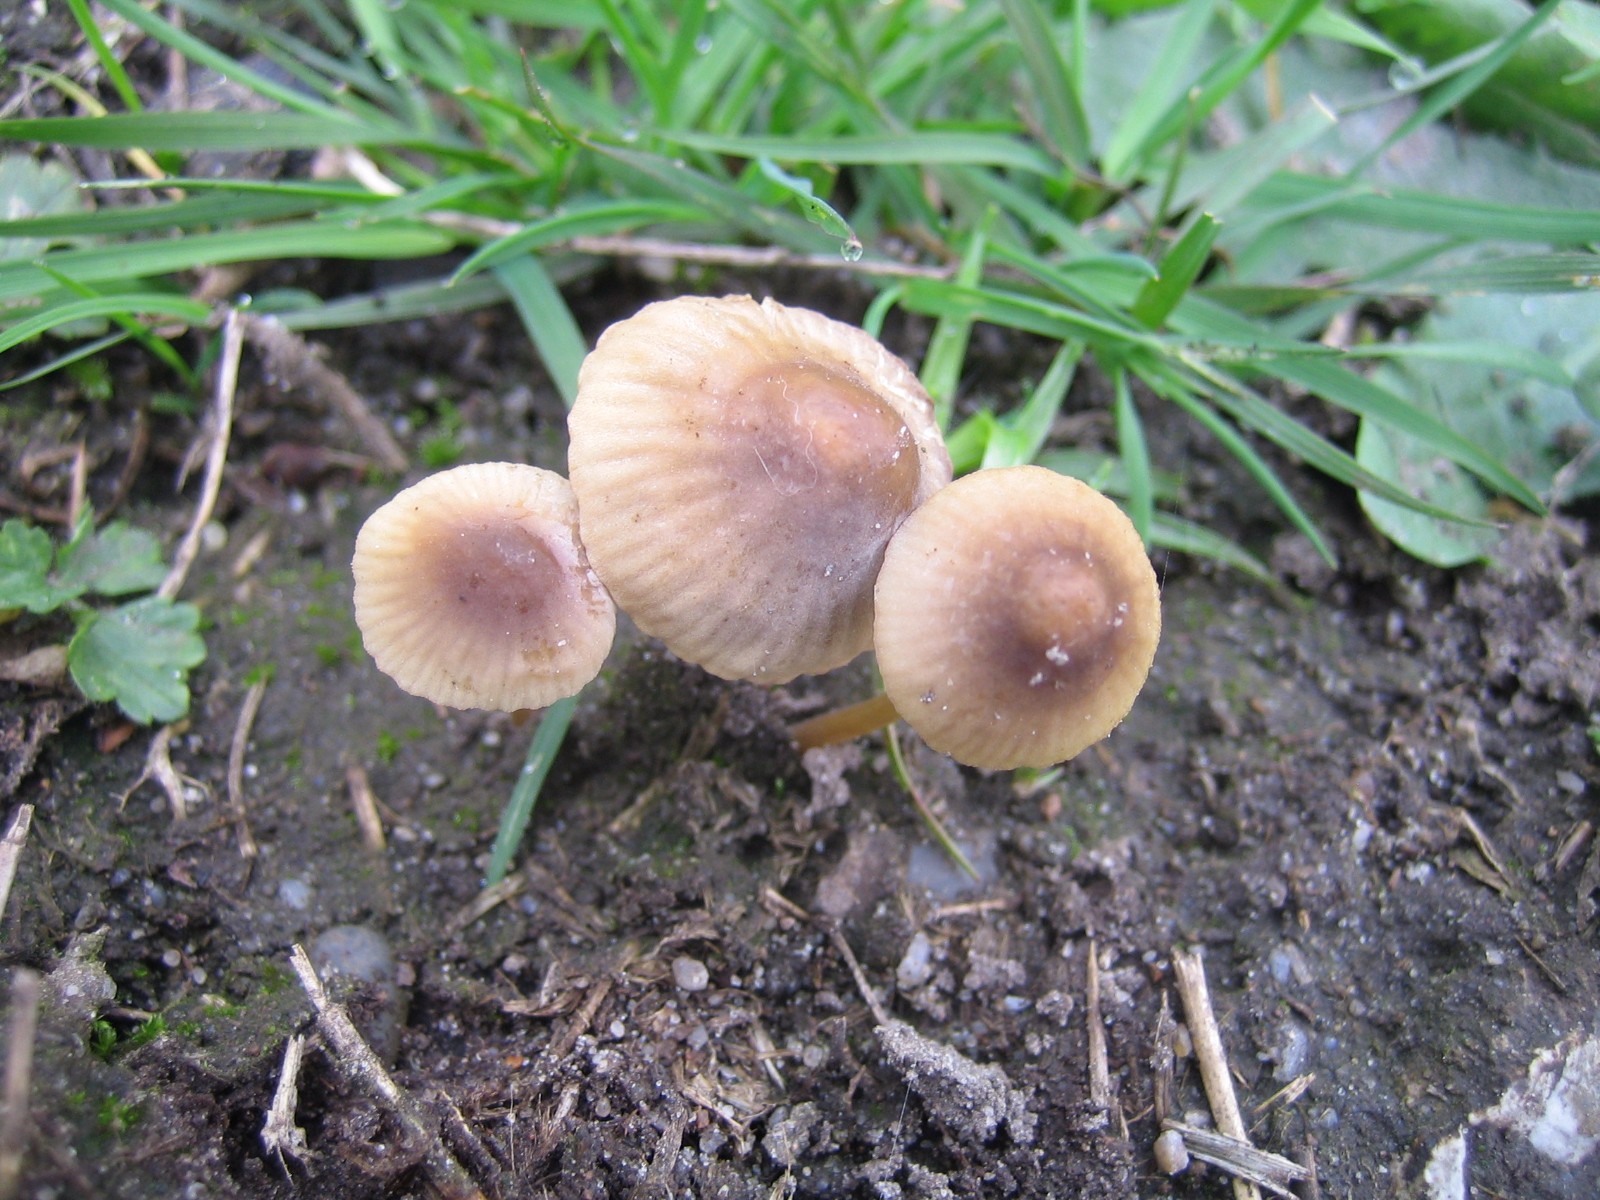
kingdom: Fungi
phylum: Basidiomycota
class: Agaricomycetes
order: Agaricales
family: Mycenaceae
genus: Mycena
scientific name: Mycena olivaceomarginata
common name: brunægget huesvamp
